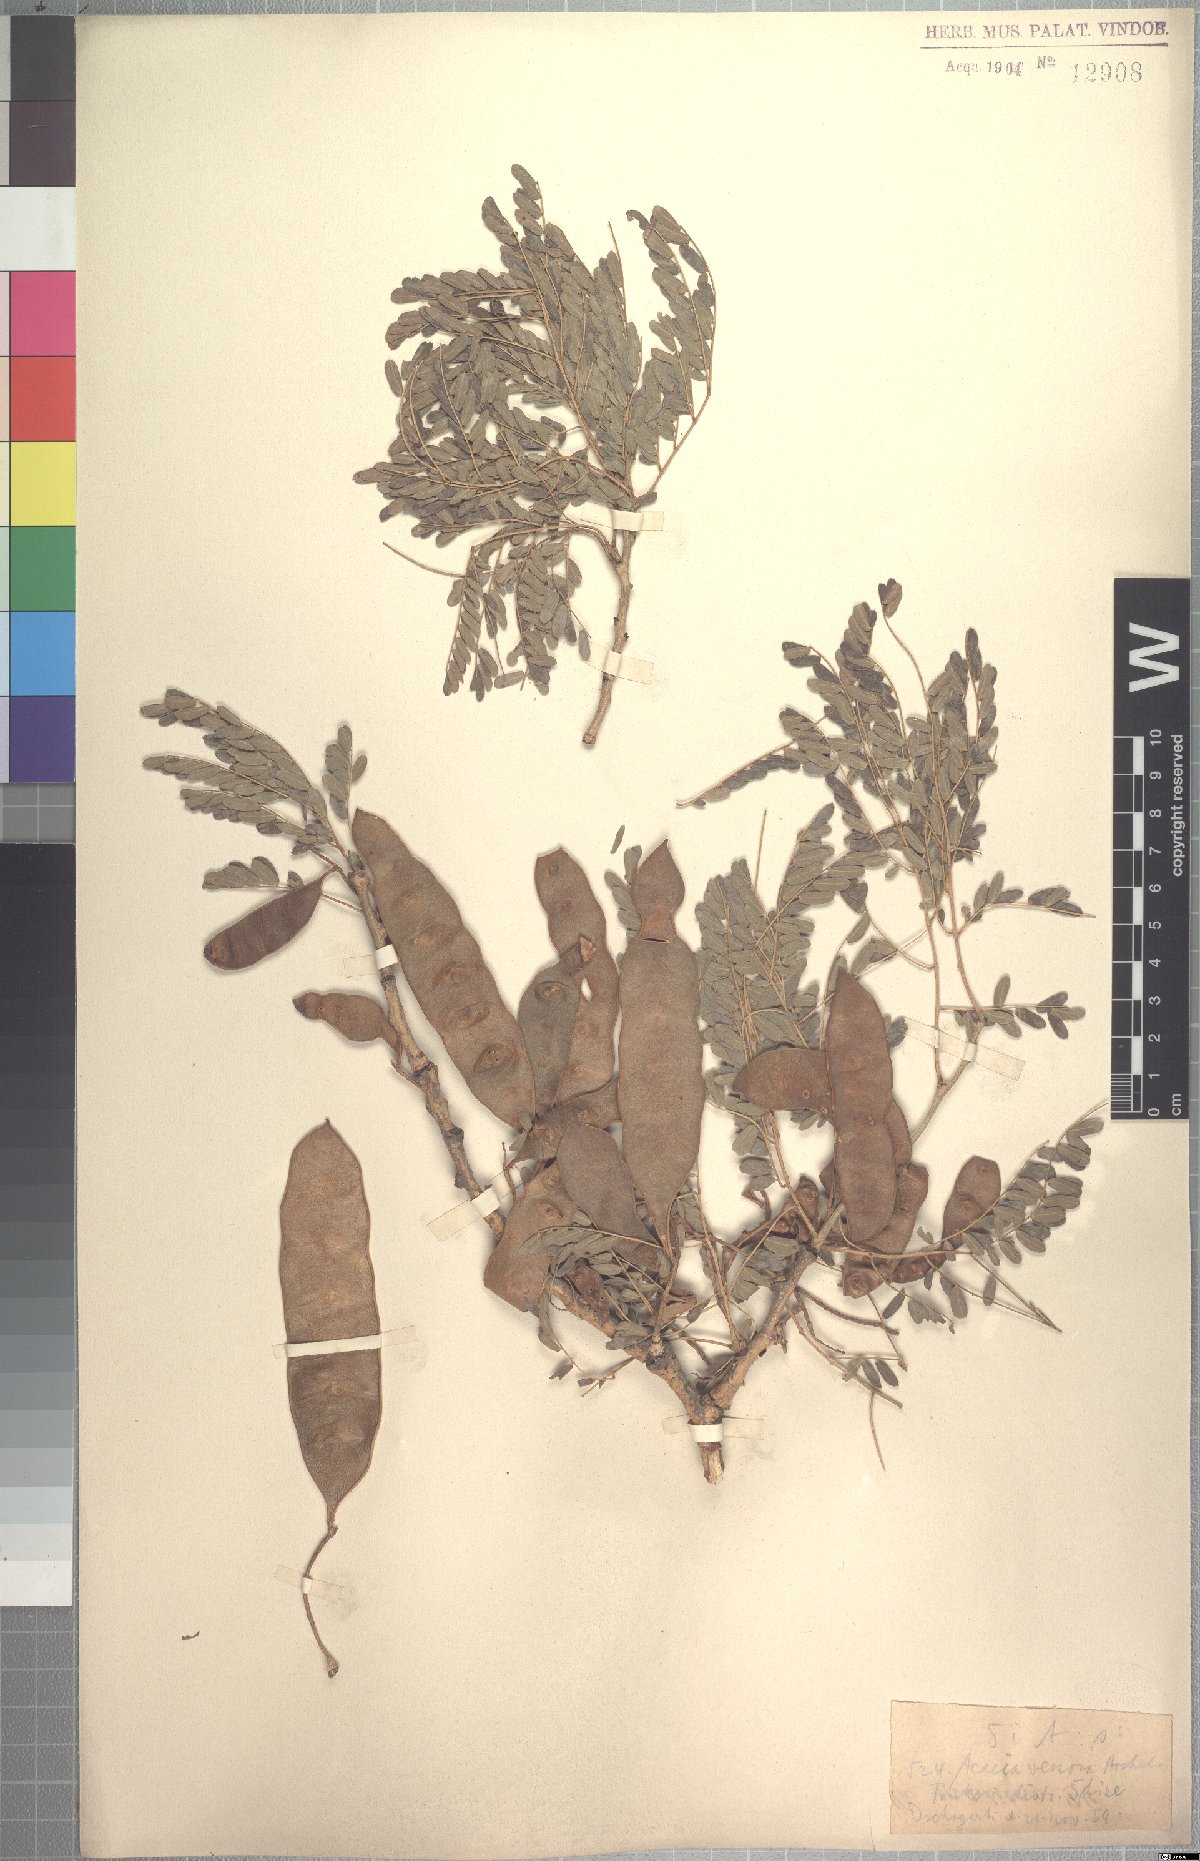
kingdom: Plantae
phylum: Tracheophyta
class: Magnoliopsida
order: Fabales
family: Fabaceae
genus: Senegalia
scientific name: Senegalia venosa
